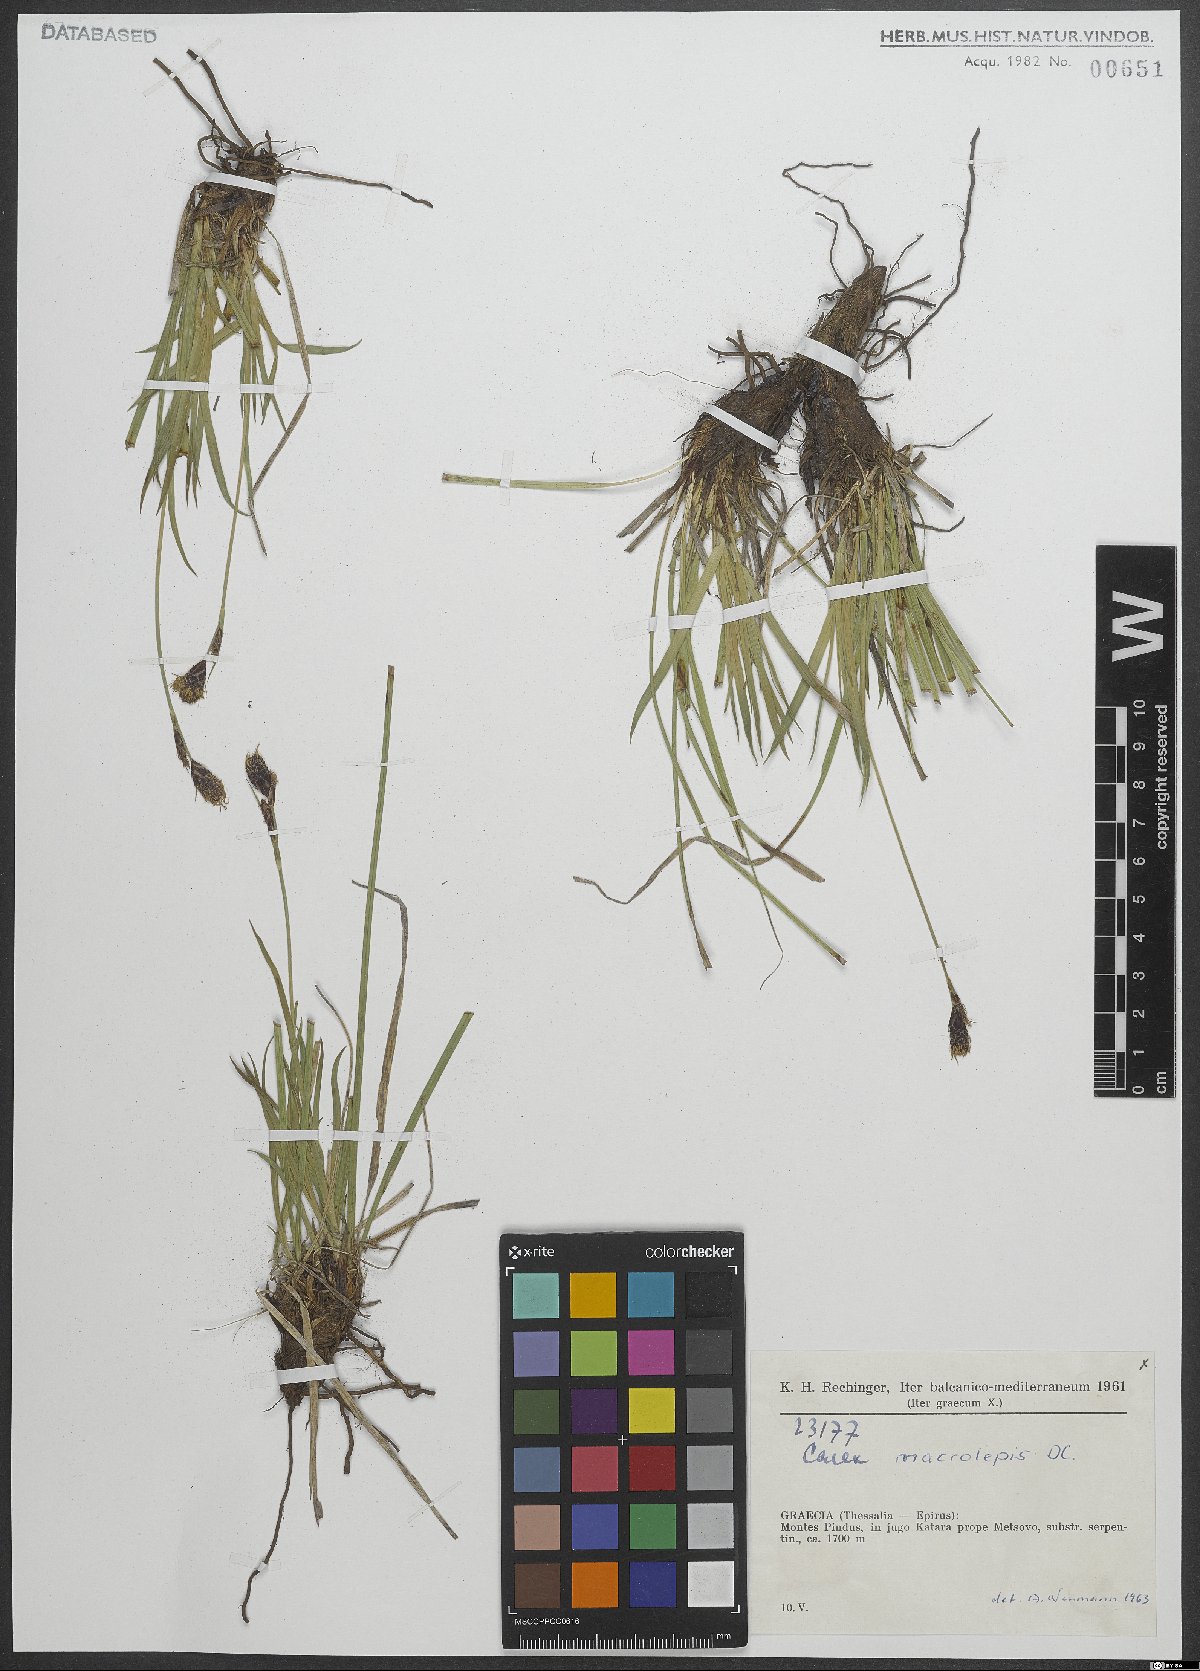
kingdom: Plantae
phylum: Tracheophyta
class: Liliopsida
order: Poales
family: Cyperaceae
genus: Carex
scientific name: Carex macrolepis
